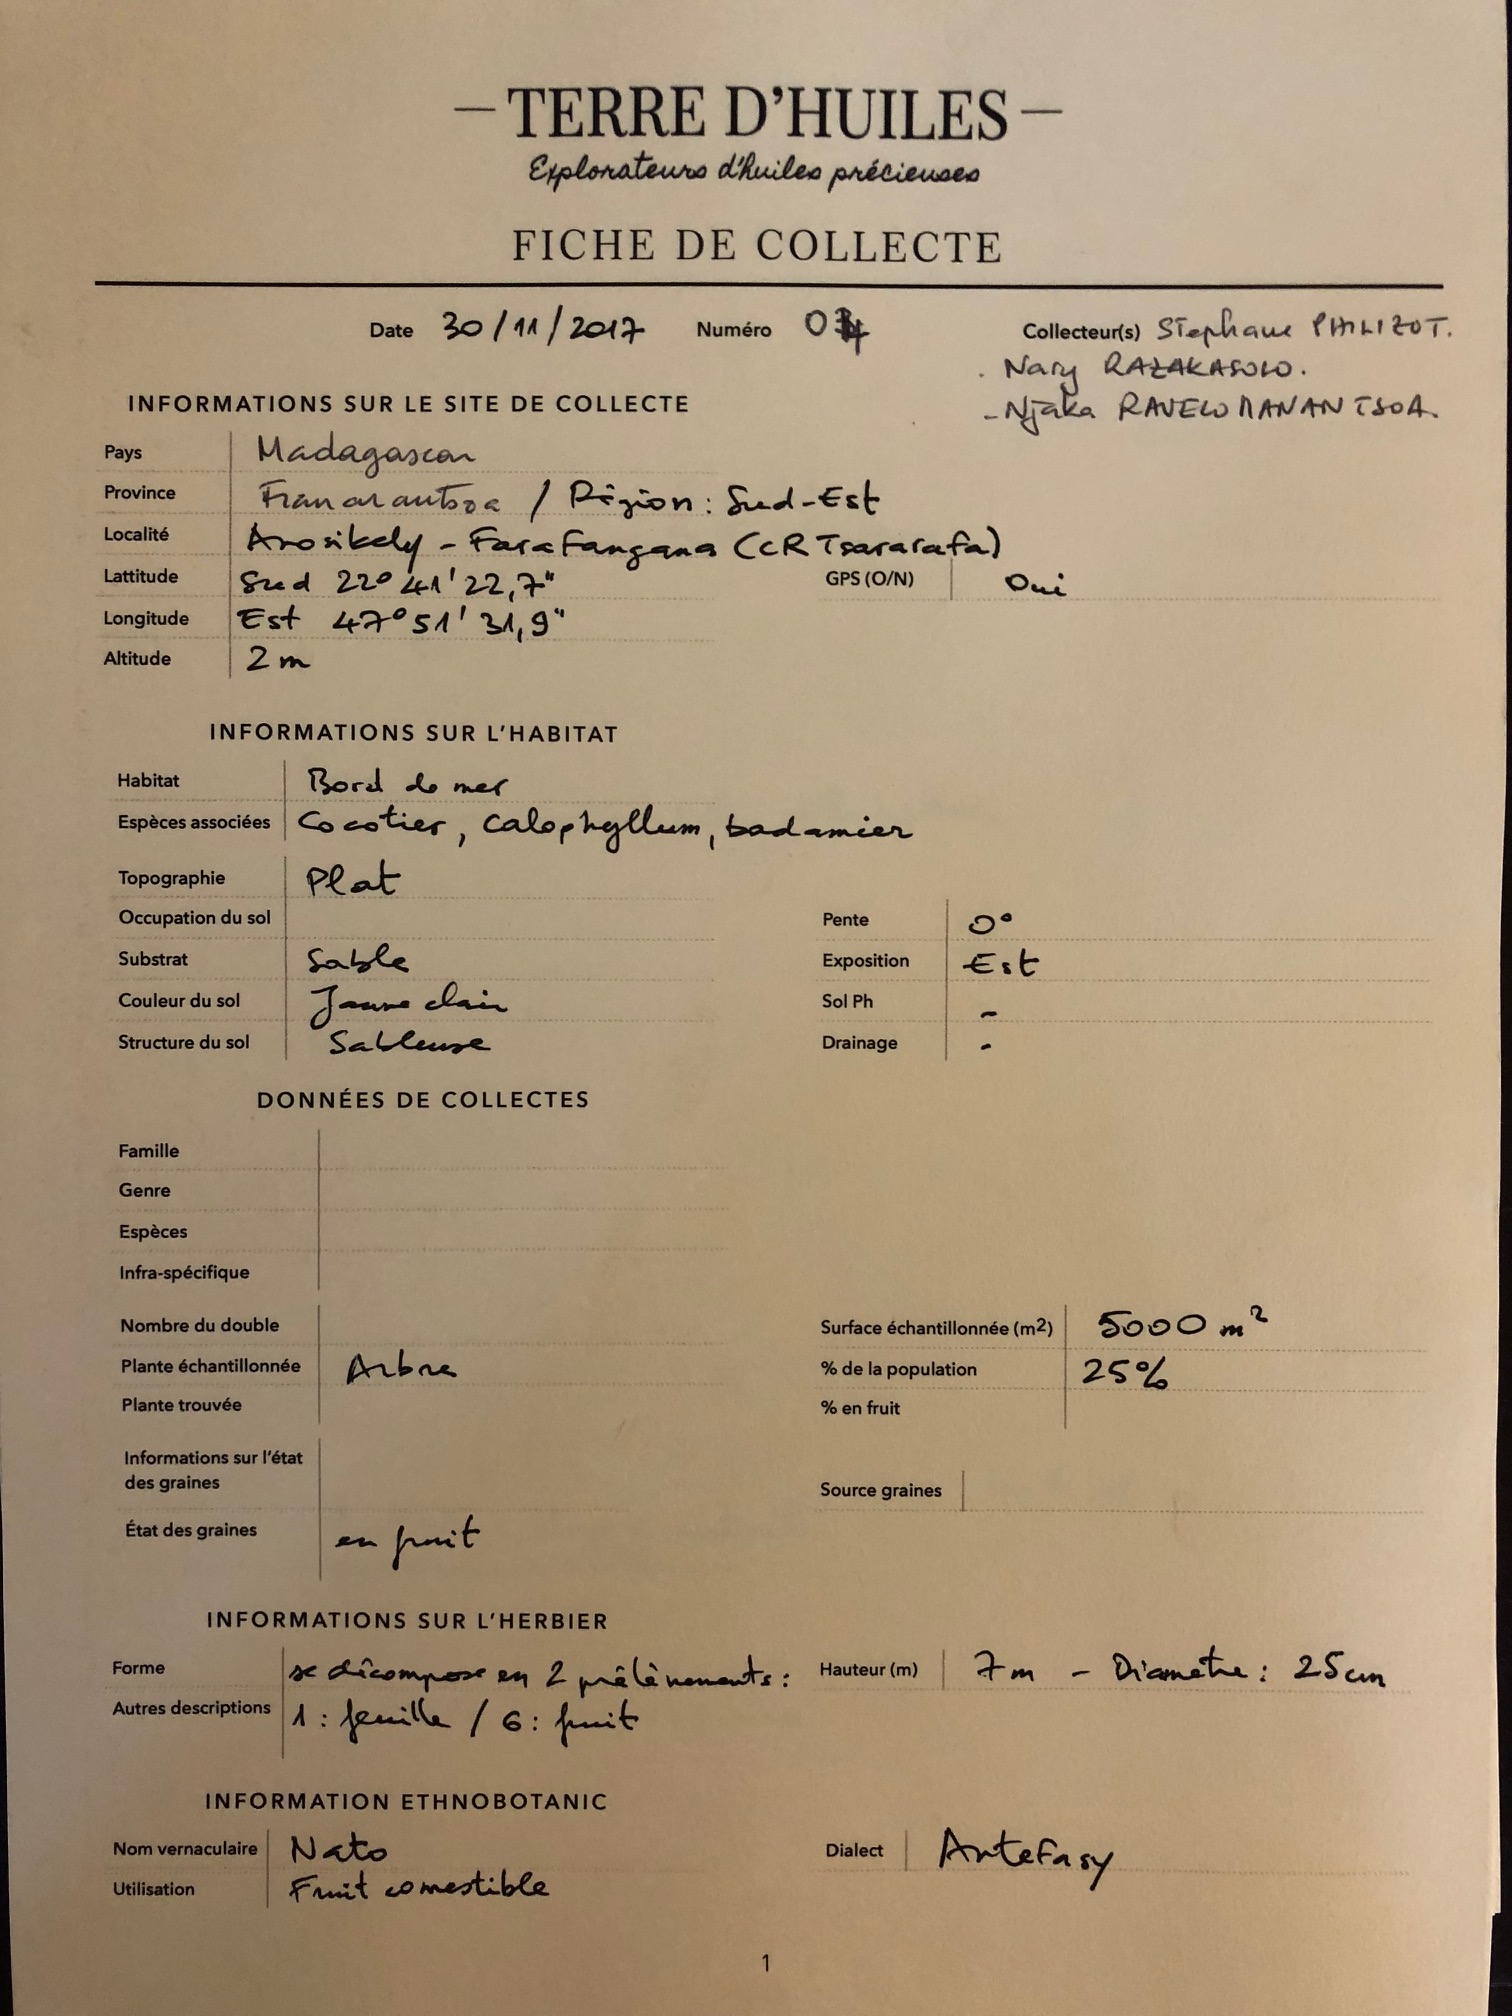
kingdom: Plantae
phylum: Tracheophyta
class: Magnoliopsida
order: Ericales
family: Sapotaceae
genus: Mimusops
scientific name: Mimusops balata
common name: Nato
